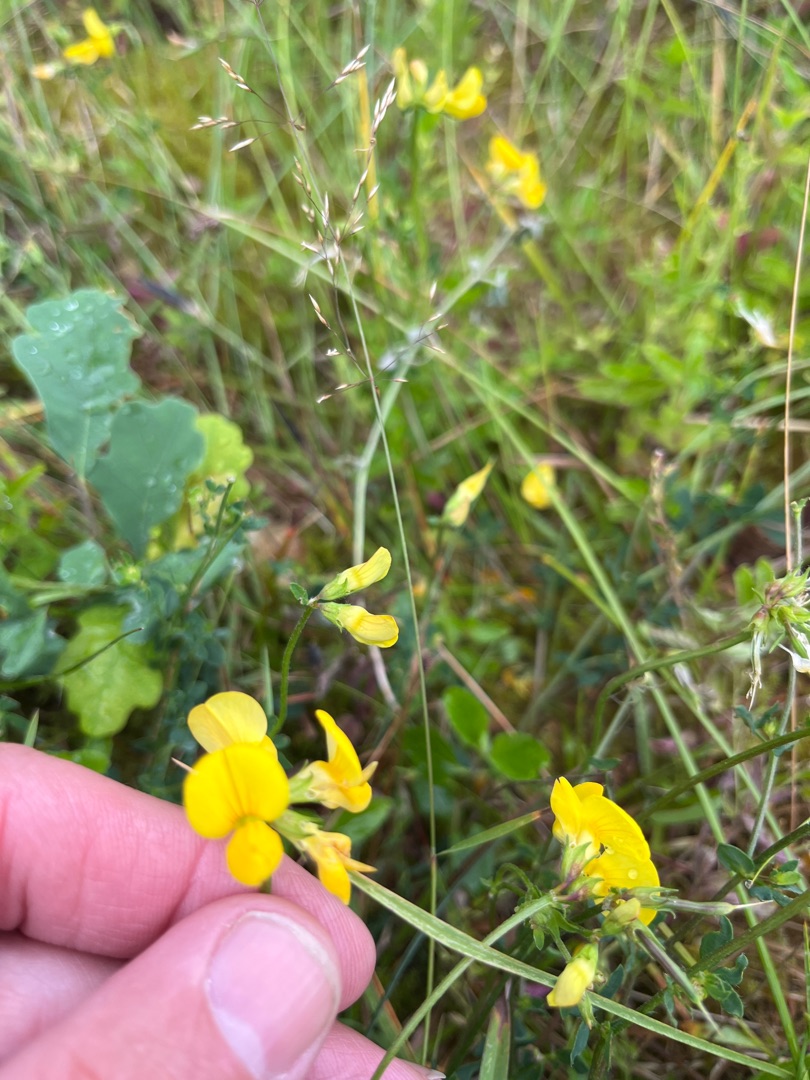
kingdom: Plantae
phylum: Tracheophyta
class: Magnoliopsida
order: Fabales
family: Fabaceae
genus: Lotus
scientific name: Lotus corniculatus
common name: Almindelig kællingetand
